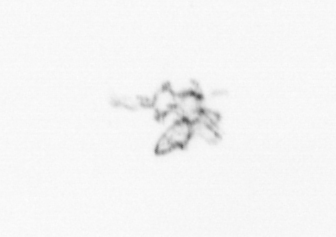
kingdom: Animalia
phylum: Arthropoda
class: Maxillopoda
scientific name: Maxillopoda
